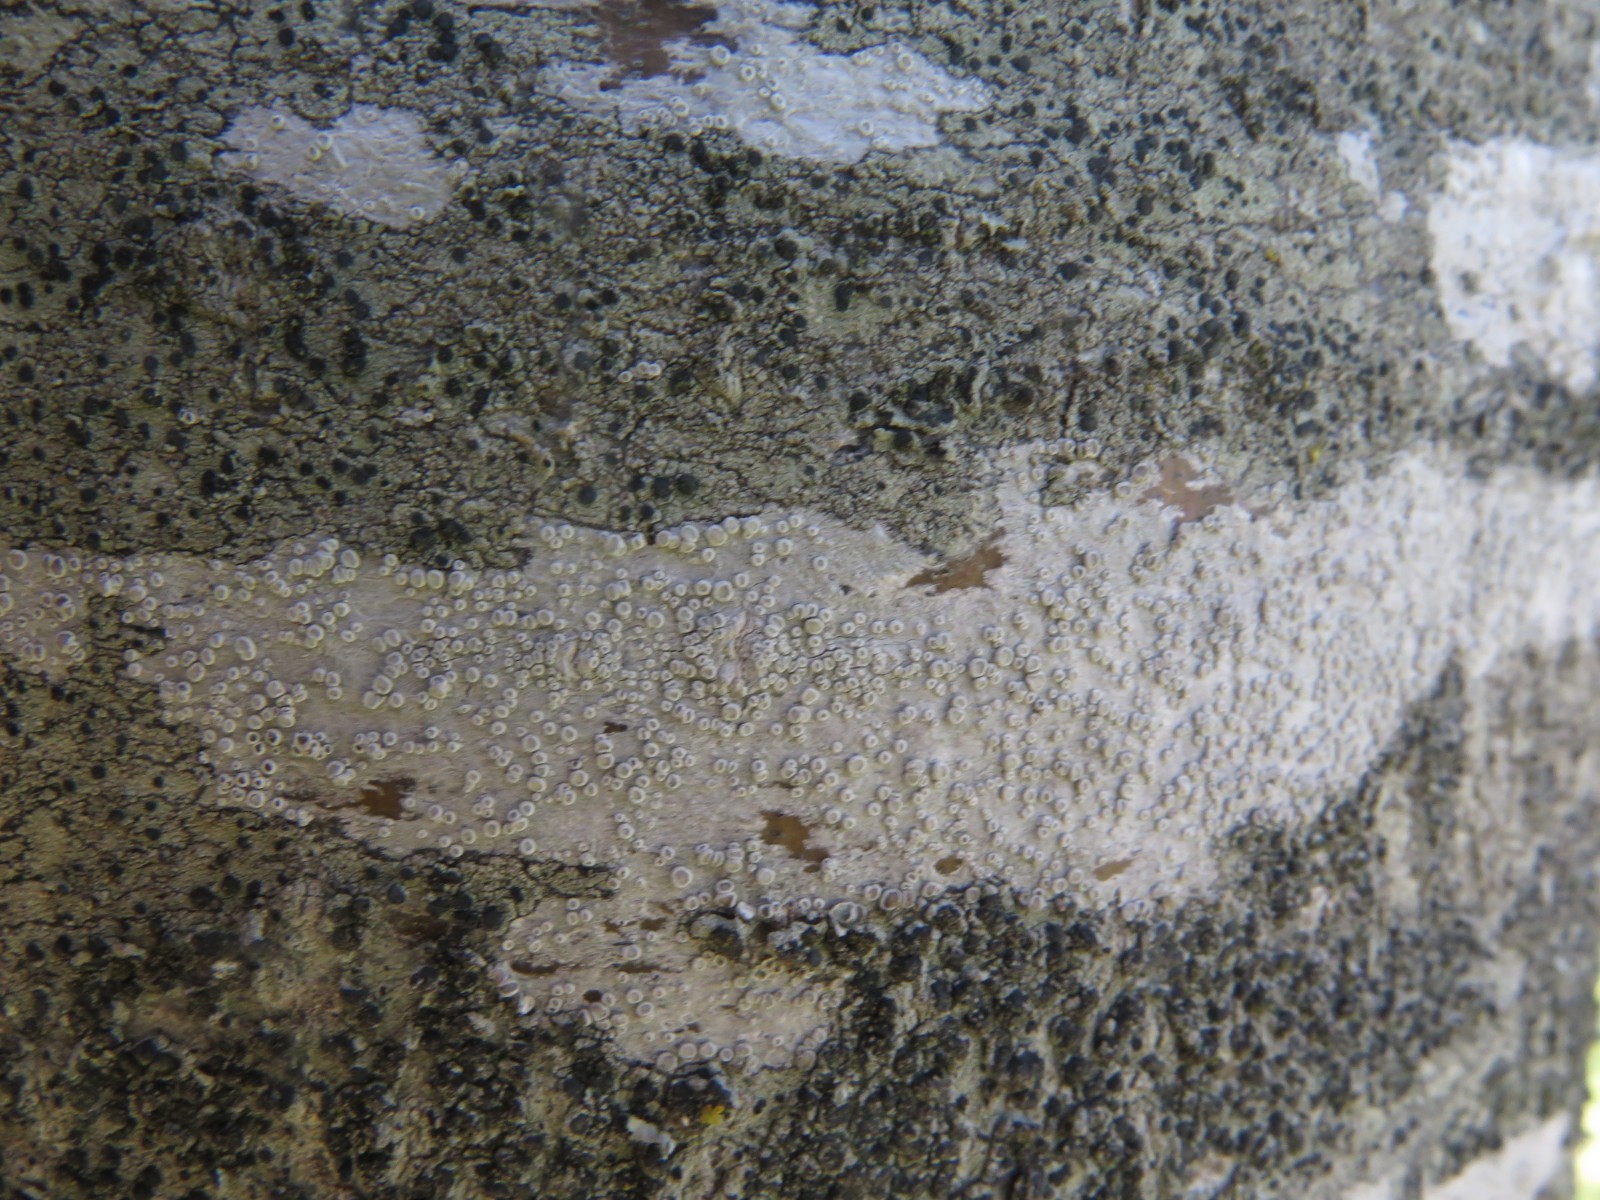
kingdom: Fungi
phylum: Ascomycota
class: Lecanoromycetes
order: Lecanorales
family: Lecanoraceae
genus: Glaucomaria
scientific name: Glaucomaria carpinea
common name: hviddugget kantskivelav
